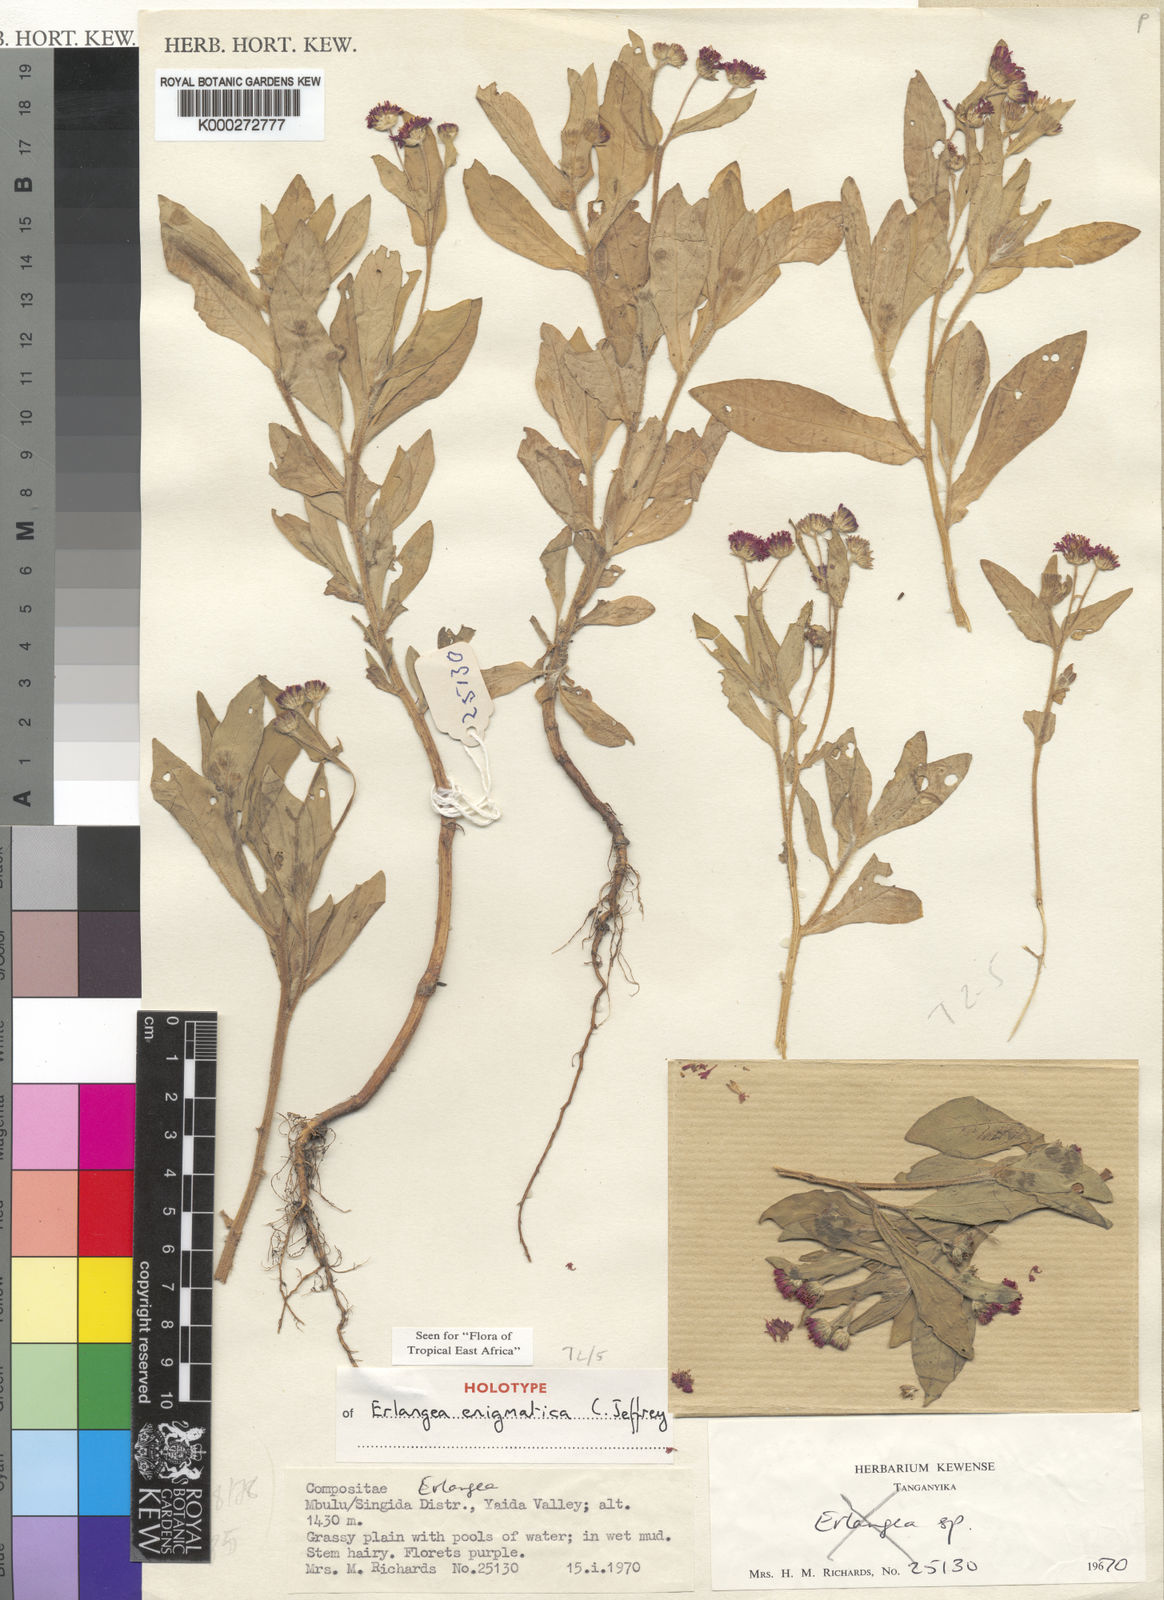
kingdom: Plantae
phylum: Tracheophyta
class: Magnoliopsida
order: Asterales
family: Asteraceae
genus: Erlangea
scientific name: Erlangea enigmatica
